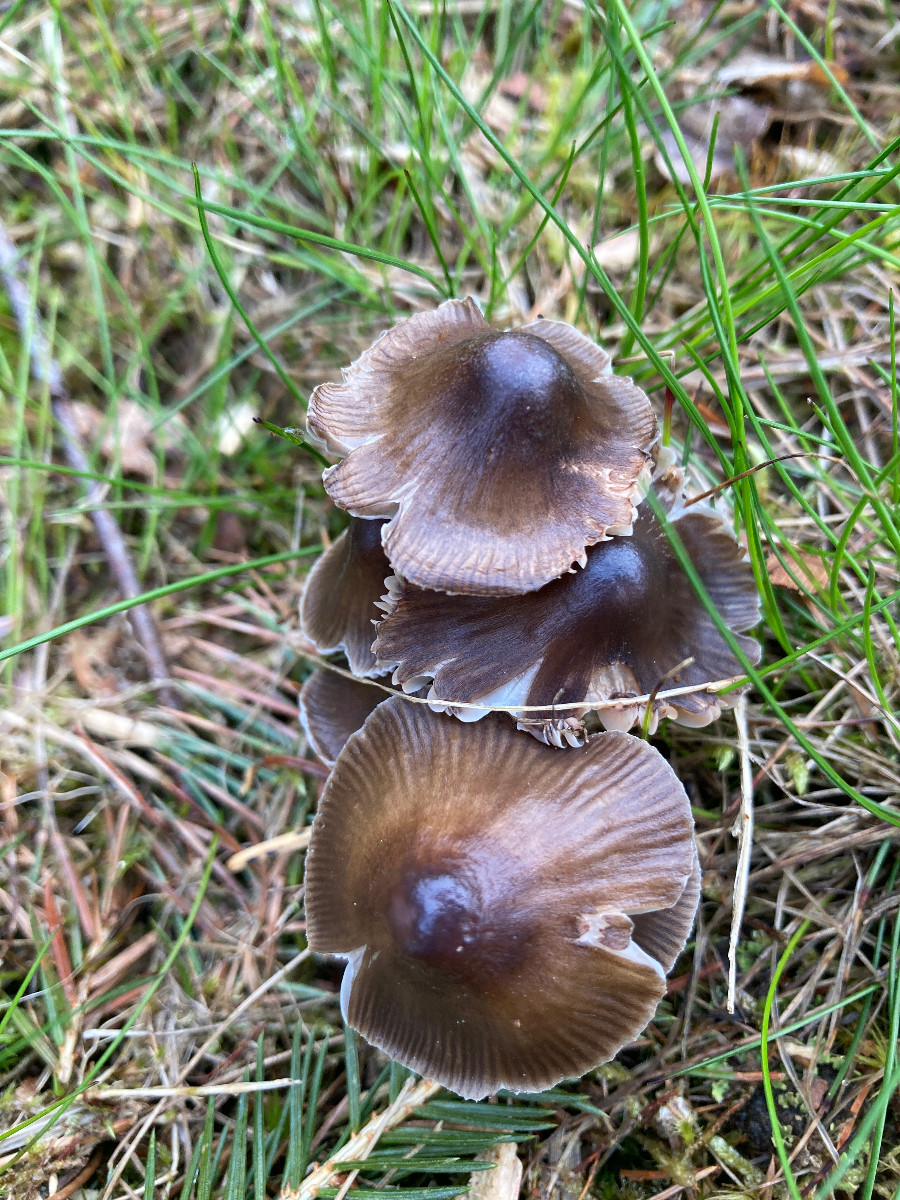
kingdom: Fungi
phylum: Basidiomycota
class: Agaricomycetes
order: Agaricales
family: Mycenaceae
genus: Mycena
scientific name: Mycena
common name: huesvamp
